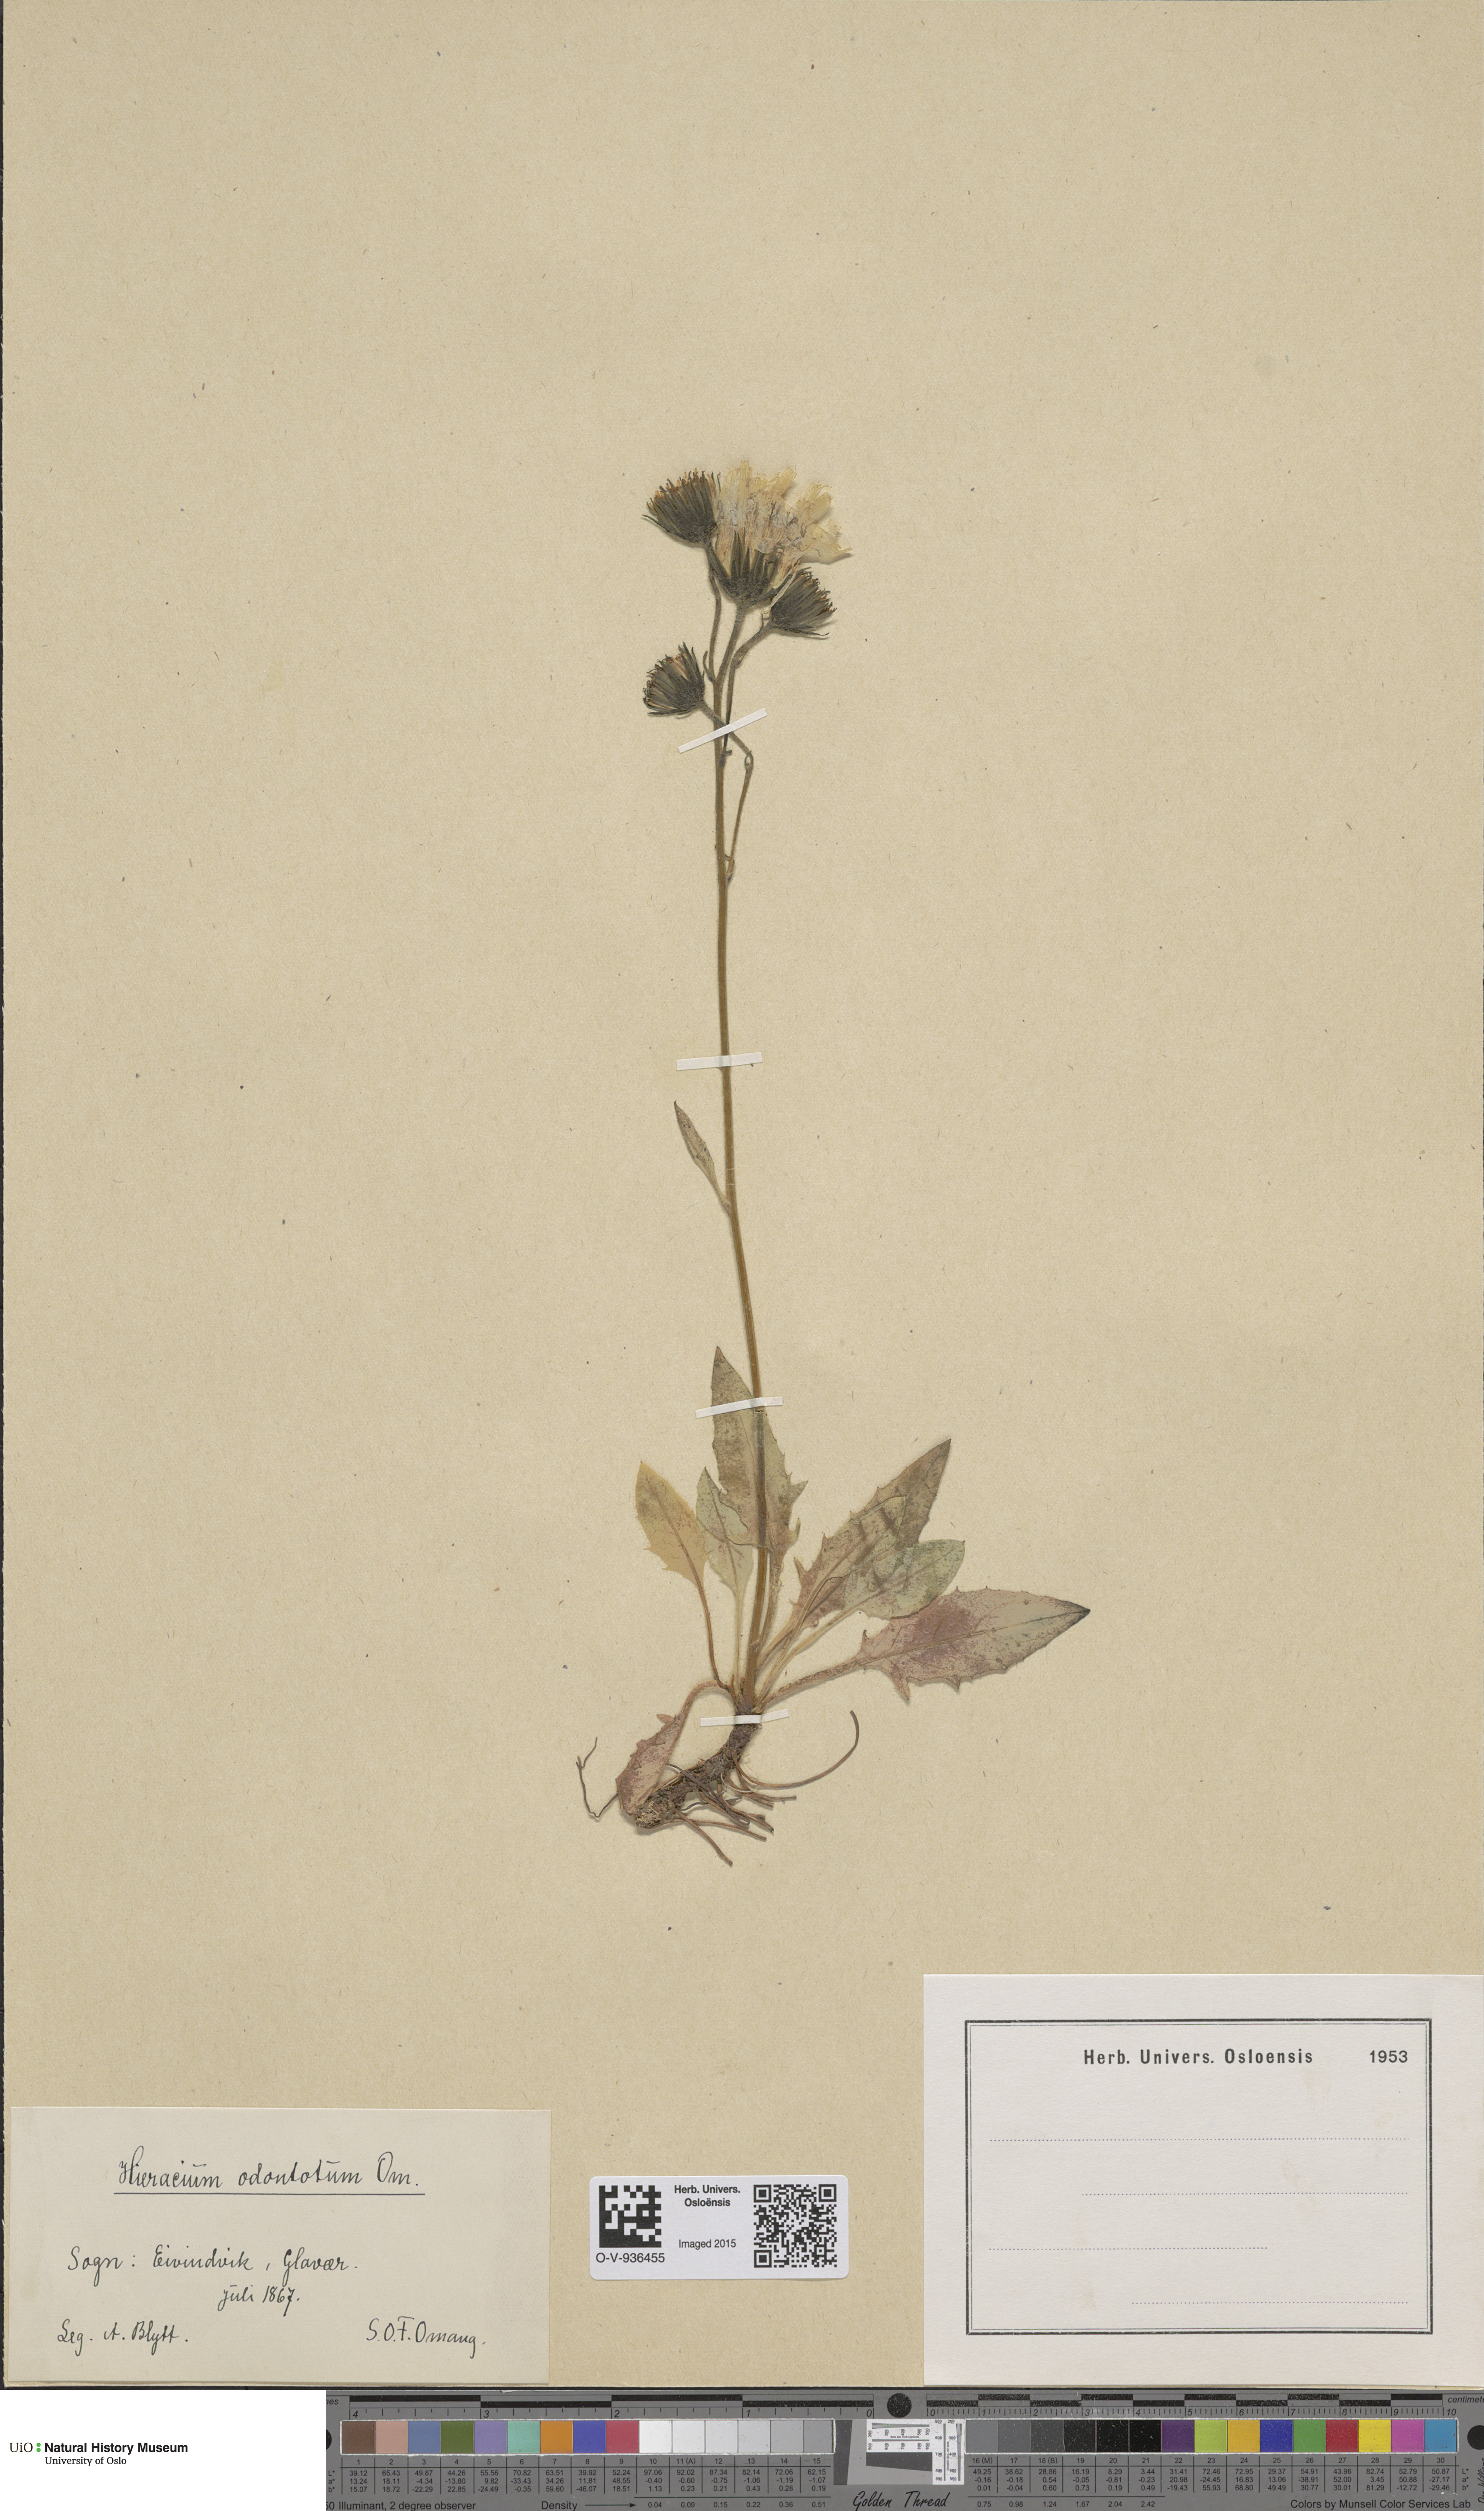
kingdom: Plantae
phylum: Tracheophyta
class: Magnoliopsida
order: Asterales
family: Asteraceae
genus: Hieracium
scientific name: Hieracium
